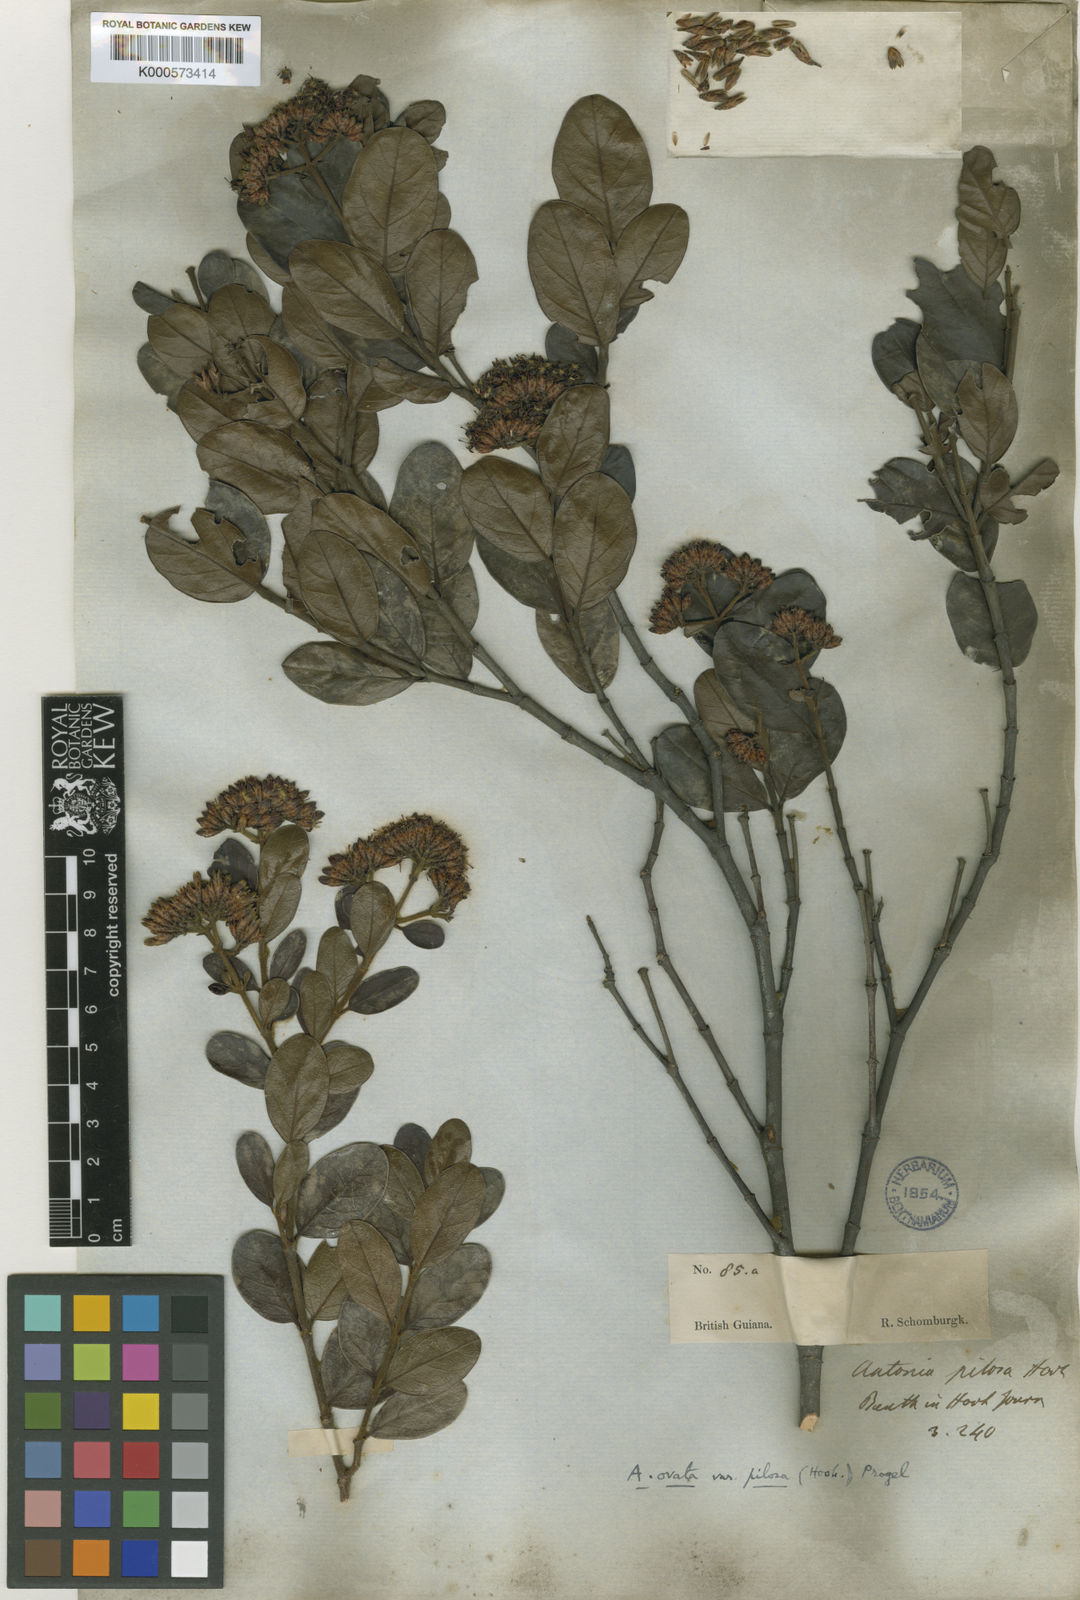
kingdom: Plantae
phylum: Tracheophyta
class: Magnoliopsida
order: Gentianales
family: Loganiaceae
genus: Antonia
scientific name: Antonia ovata
